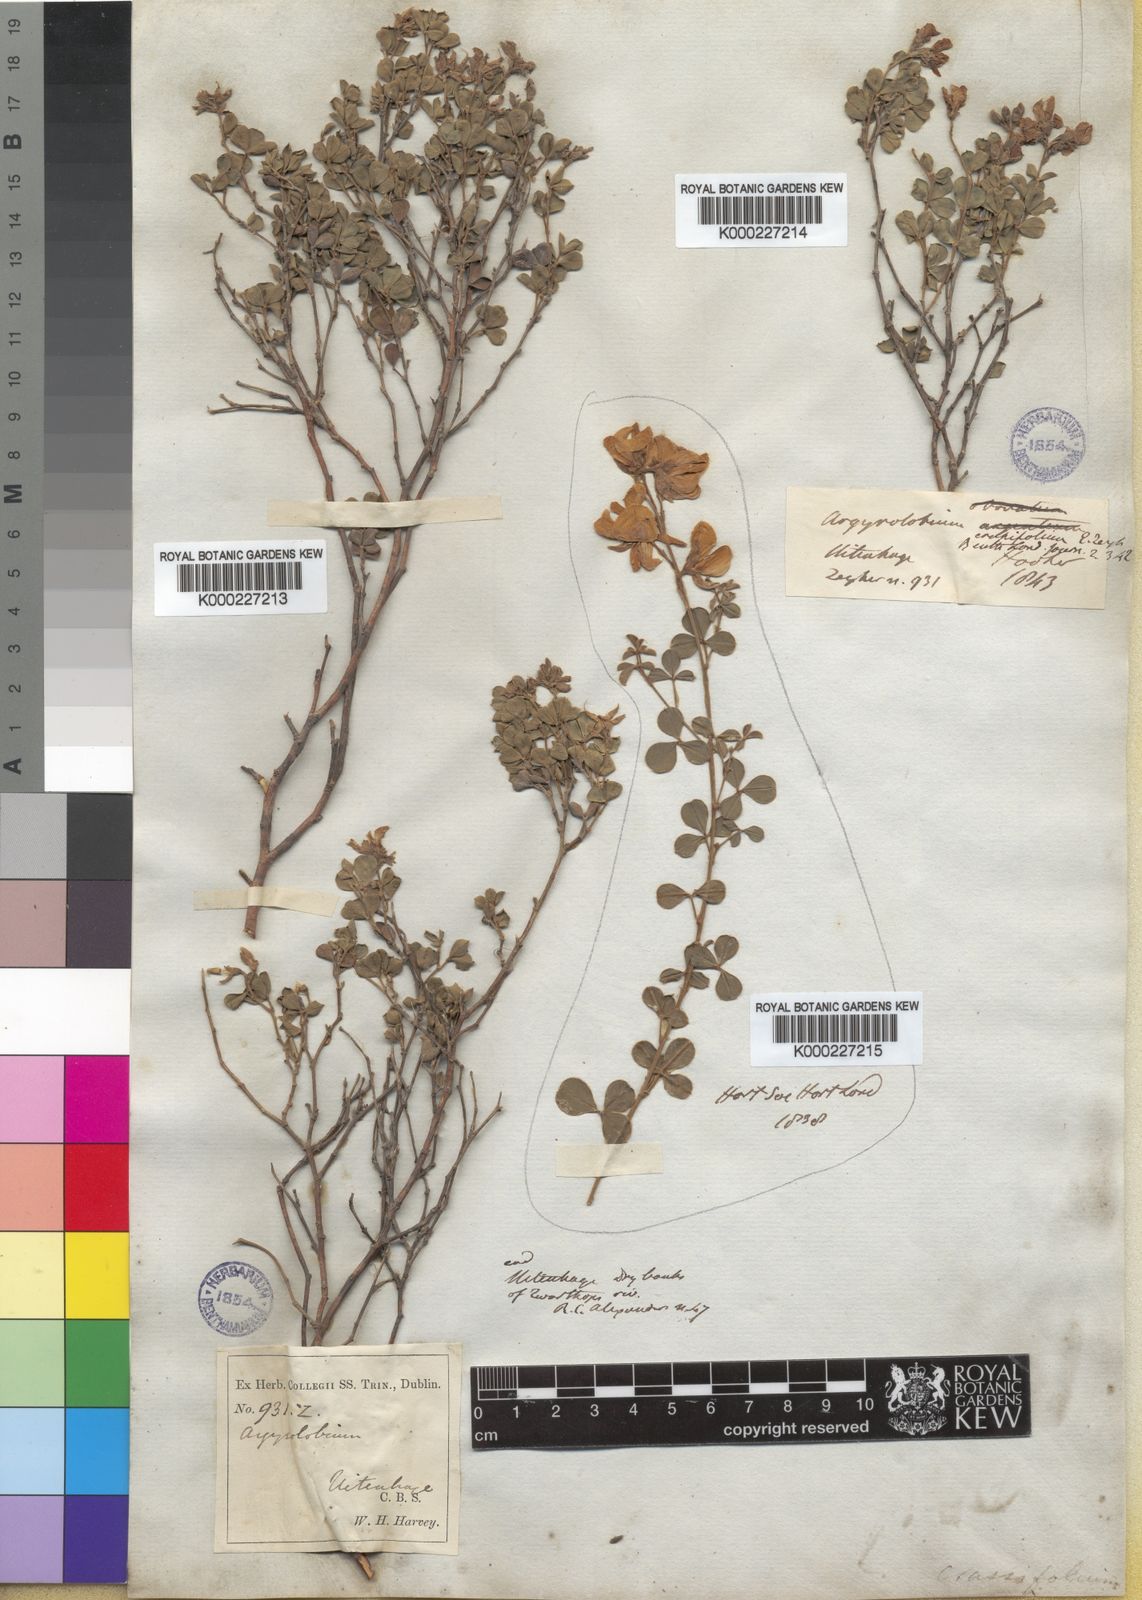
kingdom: Plantae
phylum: Tracheophyta
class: Magnoliopsida
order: Fabales
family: Fabaceae
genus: Argyrolobium
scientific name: Argyrolobium crassifolium
